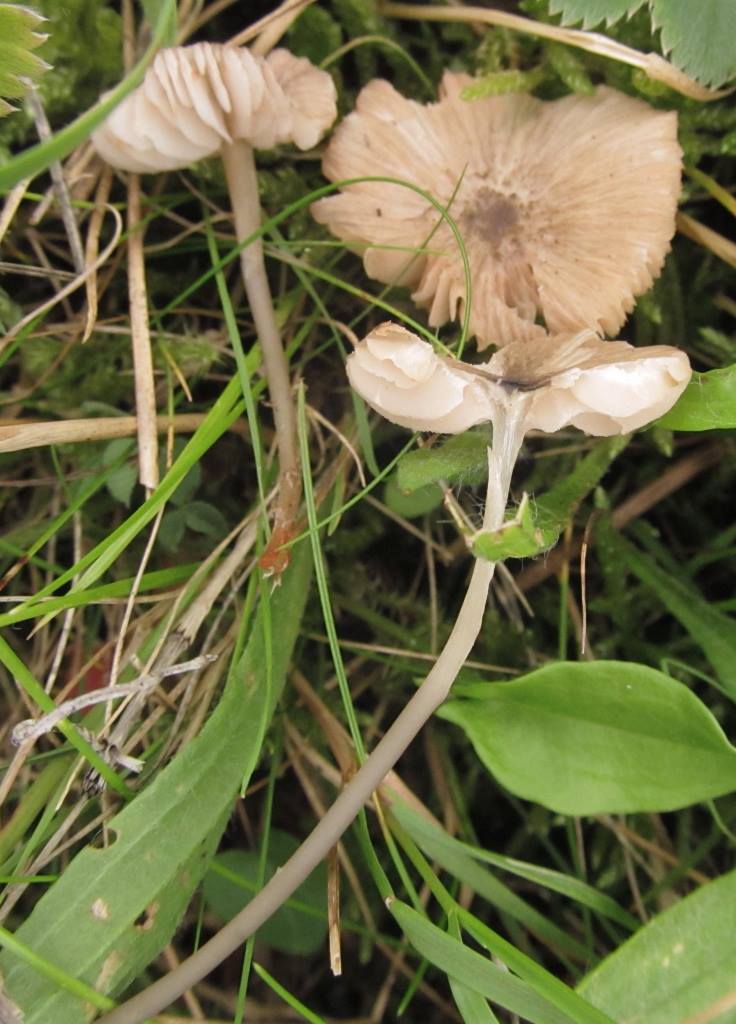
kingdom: Fungi
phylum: Basidiomycota
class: Agaricomycetes
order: Agaricales
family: Entolomataceae
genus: Entoloma
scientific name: Entoloma exile
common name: rødplettet rødblad
